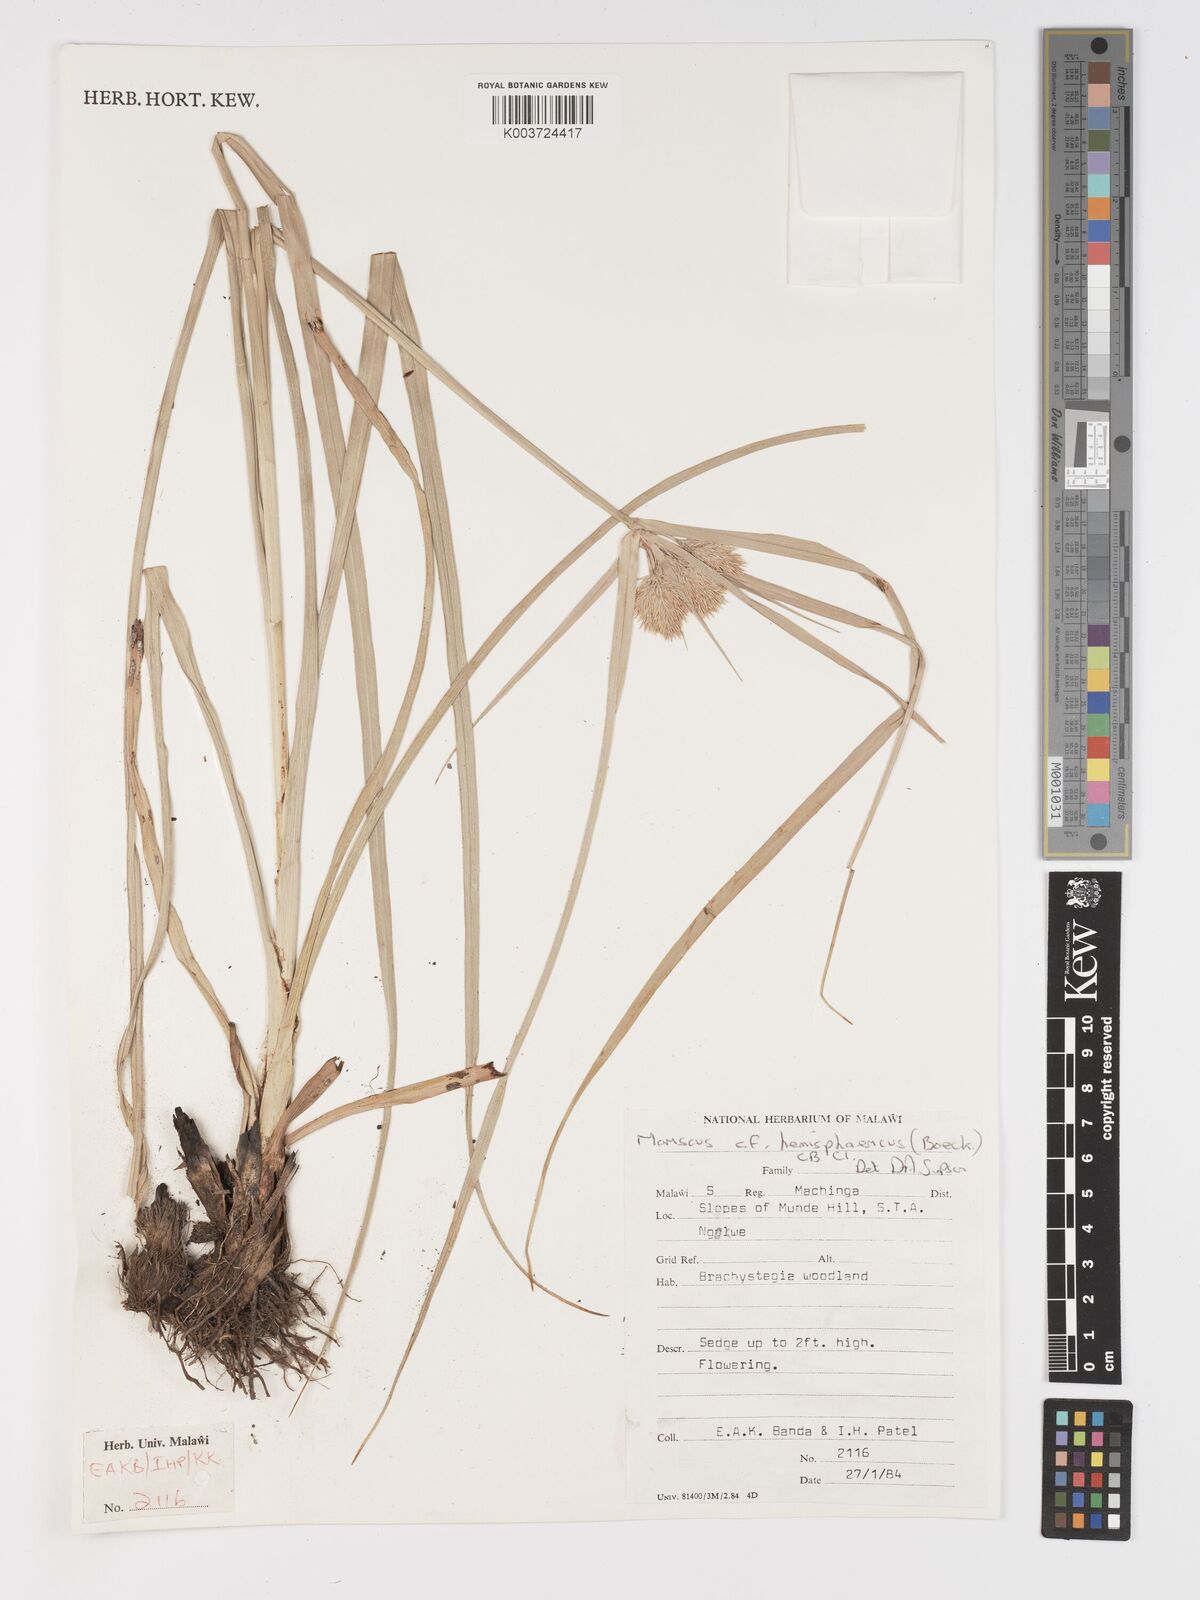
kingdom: Plantae
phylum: Tracheophyta
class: Liliopsida
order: Poales
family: Cyperaceae
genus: Cyperus
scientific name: Cyperus hemisphaericus
